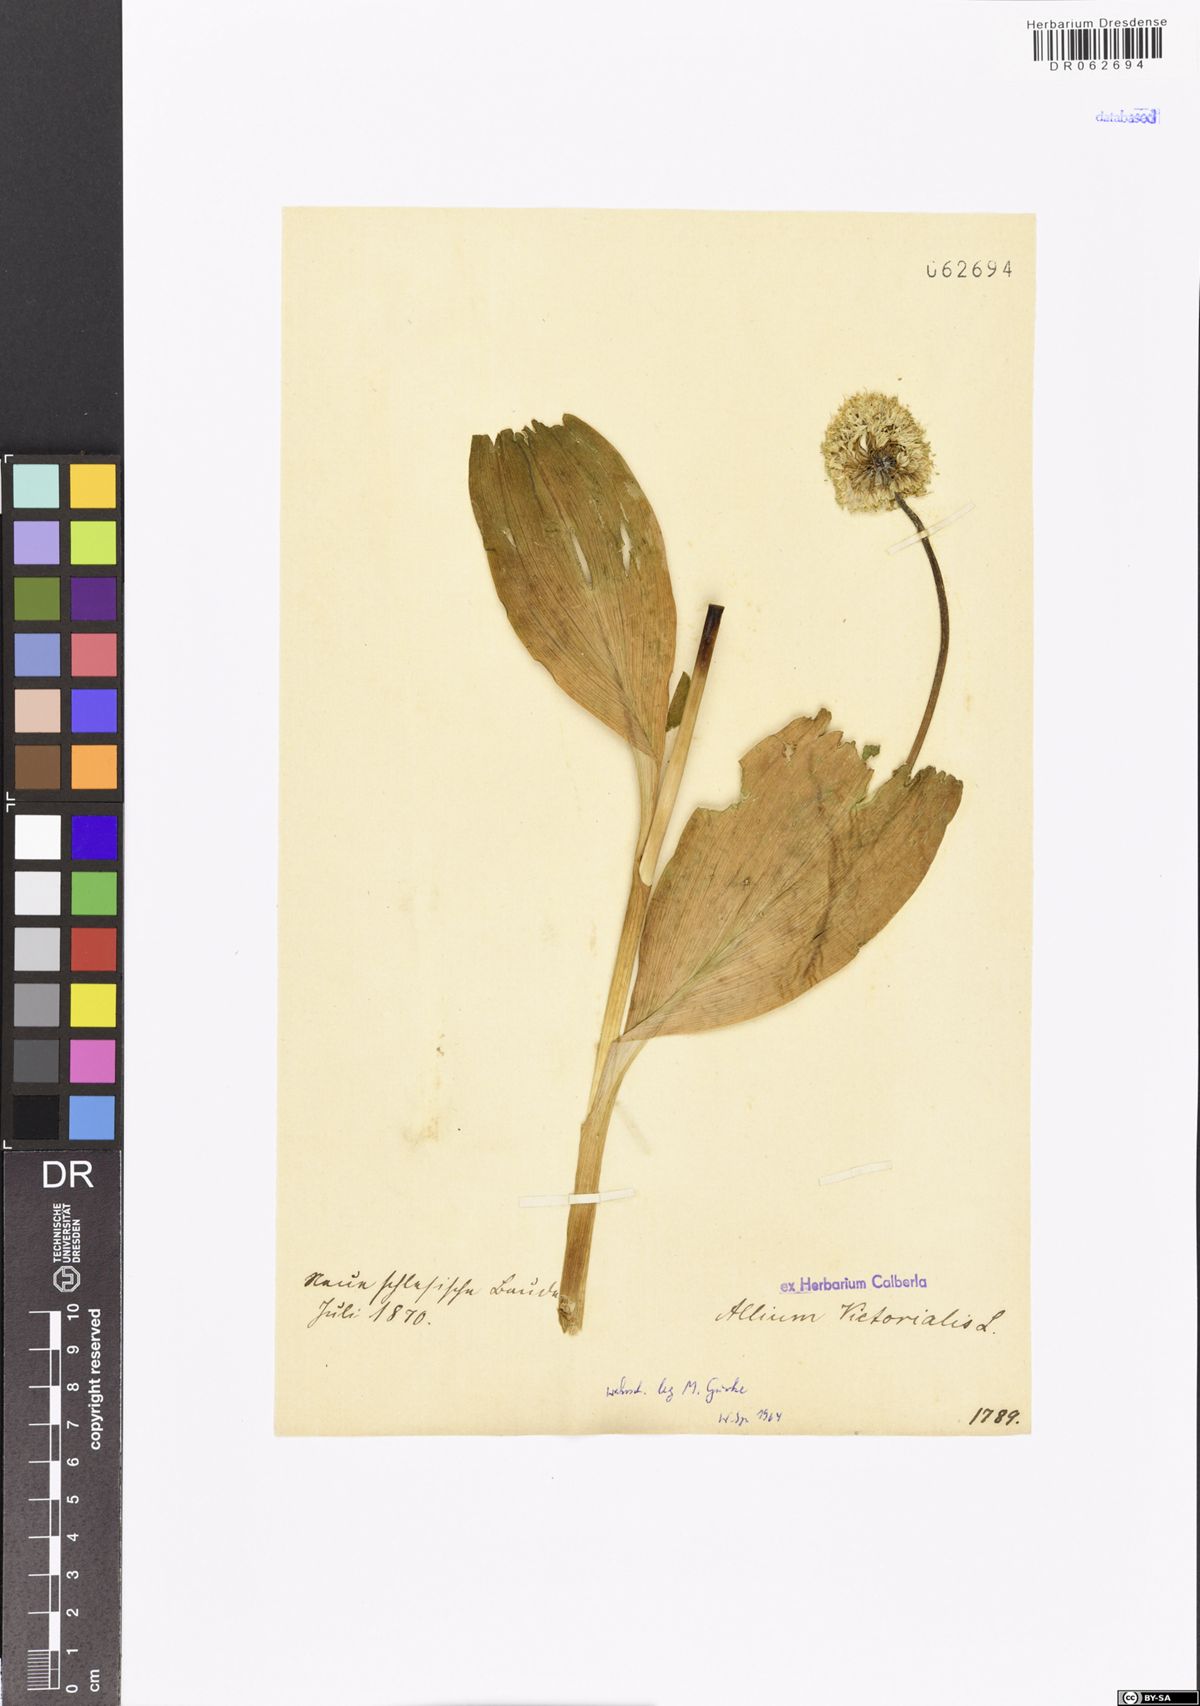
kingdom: Plantae
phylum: Tracheophyta
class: Liliopsida
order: Asparagales
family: Amaryllidaceae
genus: Allium
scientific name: Allium victorialis
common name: Alpine leek
